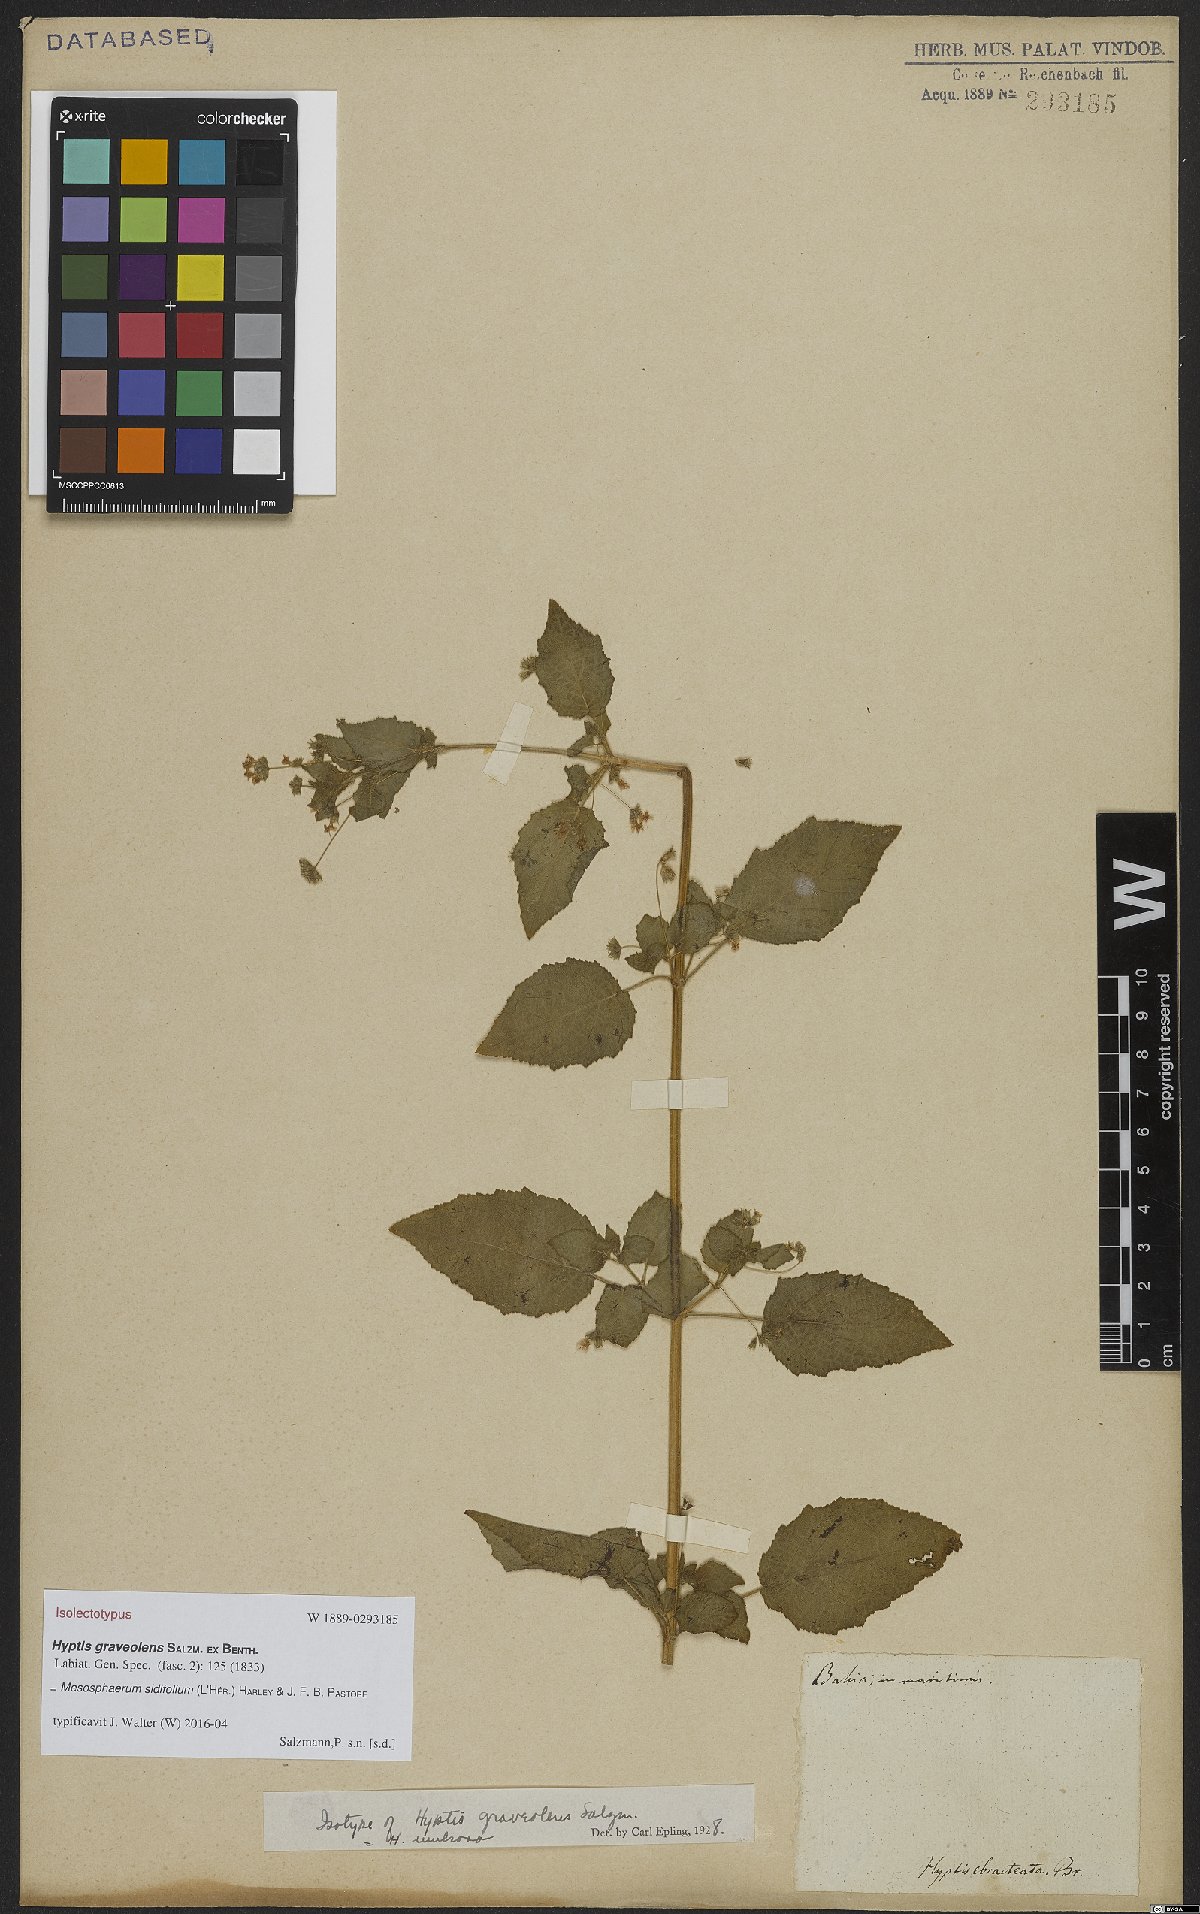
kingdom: Plantae
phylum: Tracheophyta
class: Magnoliopsida
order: Lamiales
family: Lamiaceae
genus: Mesosphaerum
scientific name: Mesosphaerum sidifolium
